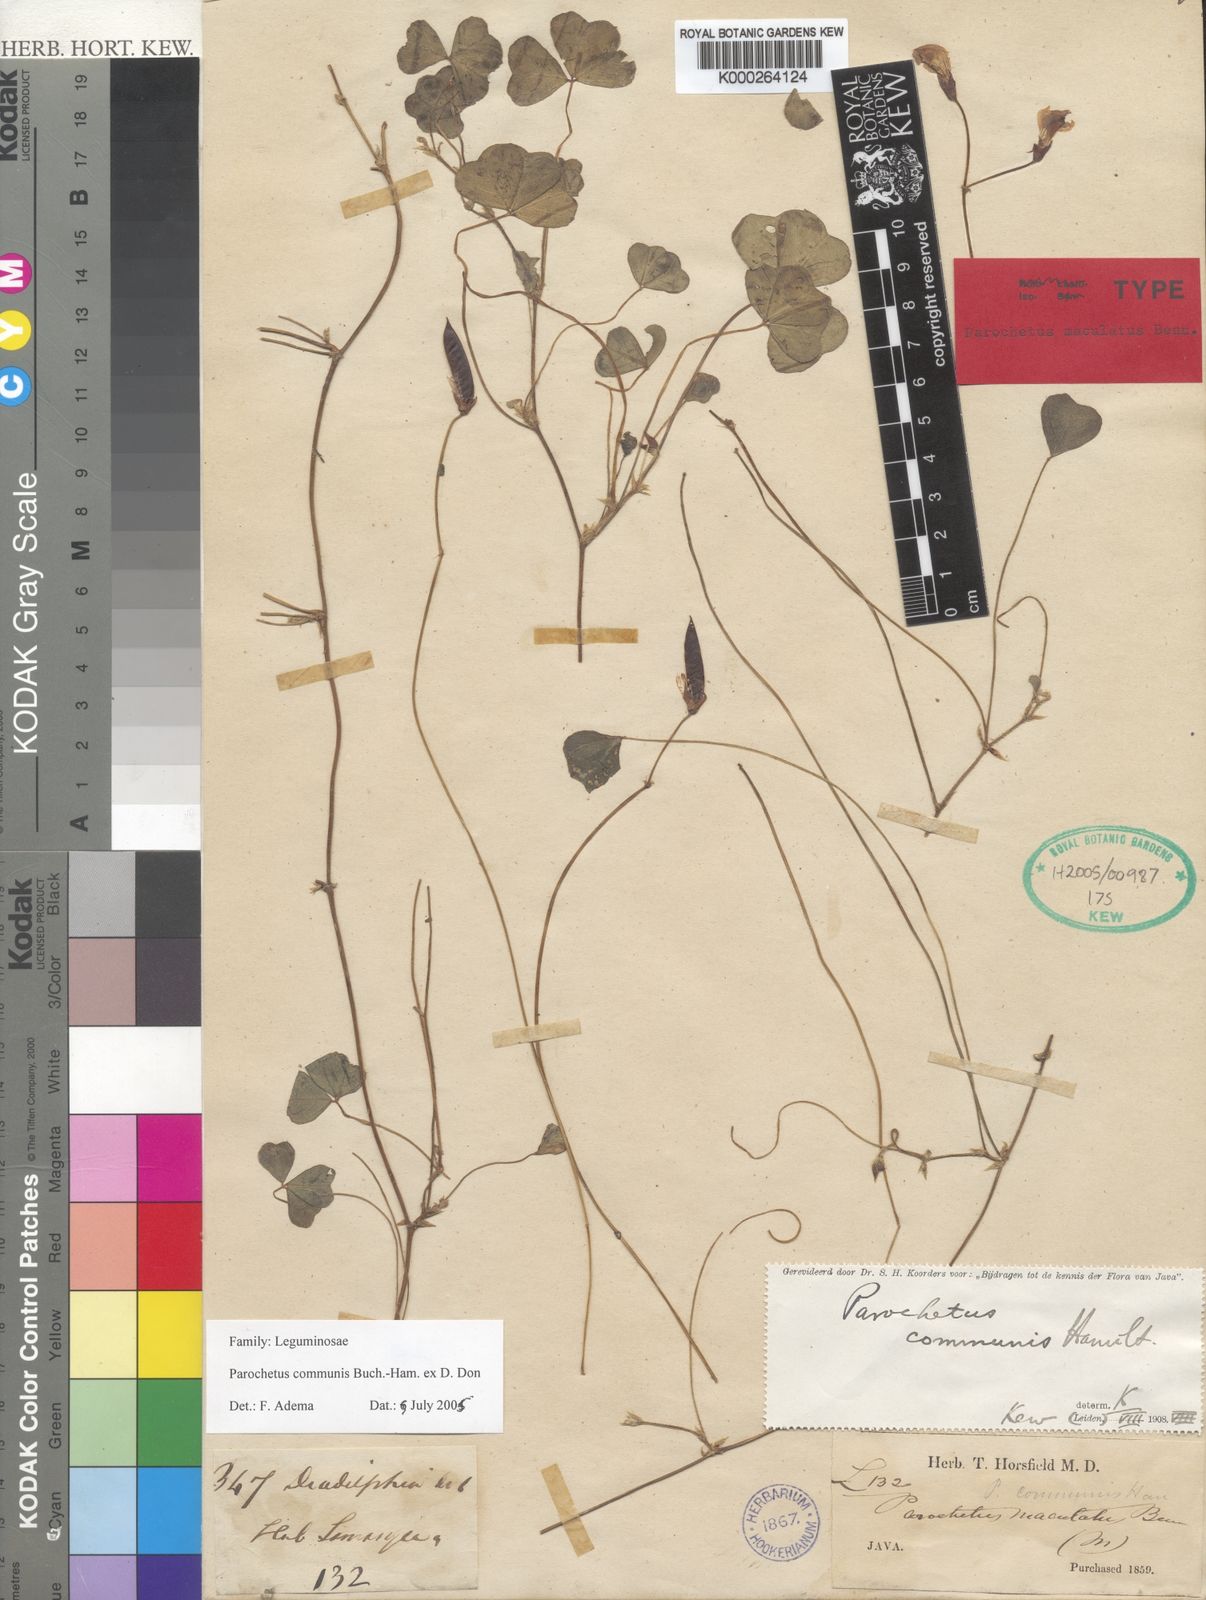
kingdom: Plantae
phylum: Tracheophyta
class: Magnoliopsida
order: Fabales
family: Fabaceae
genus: Parochetus
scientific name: Parochetus communis
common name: Blue oxalis
